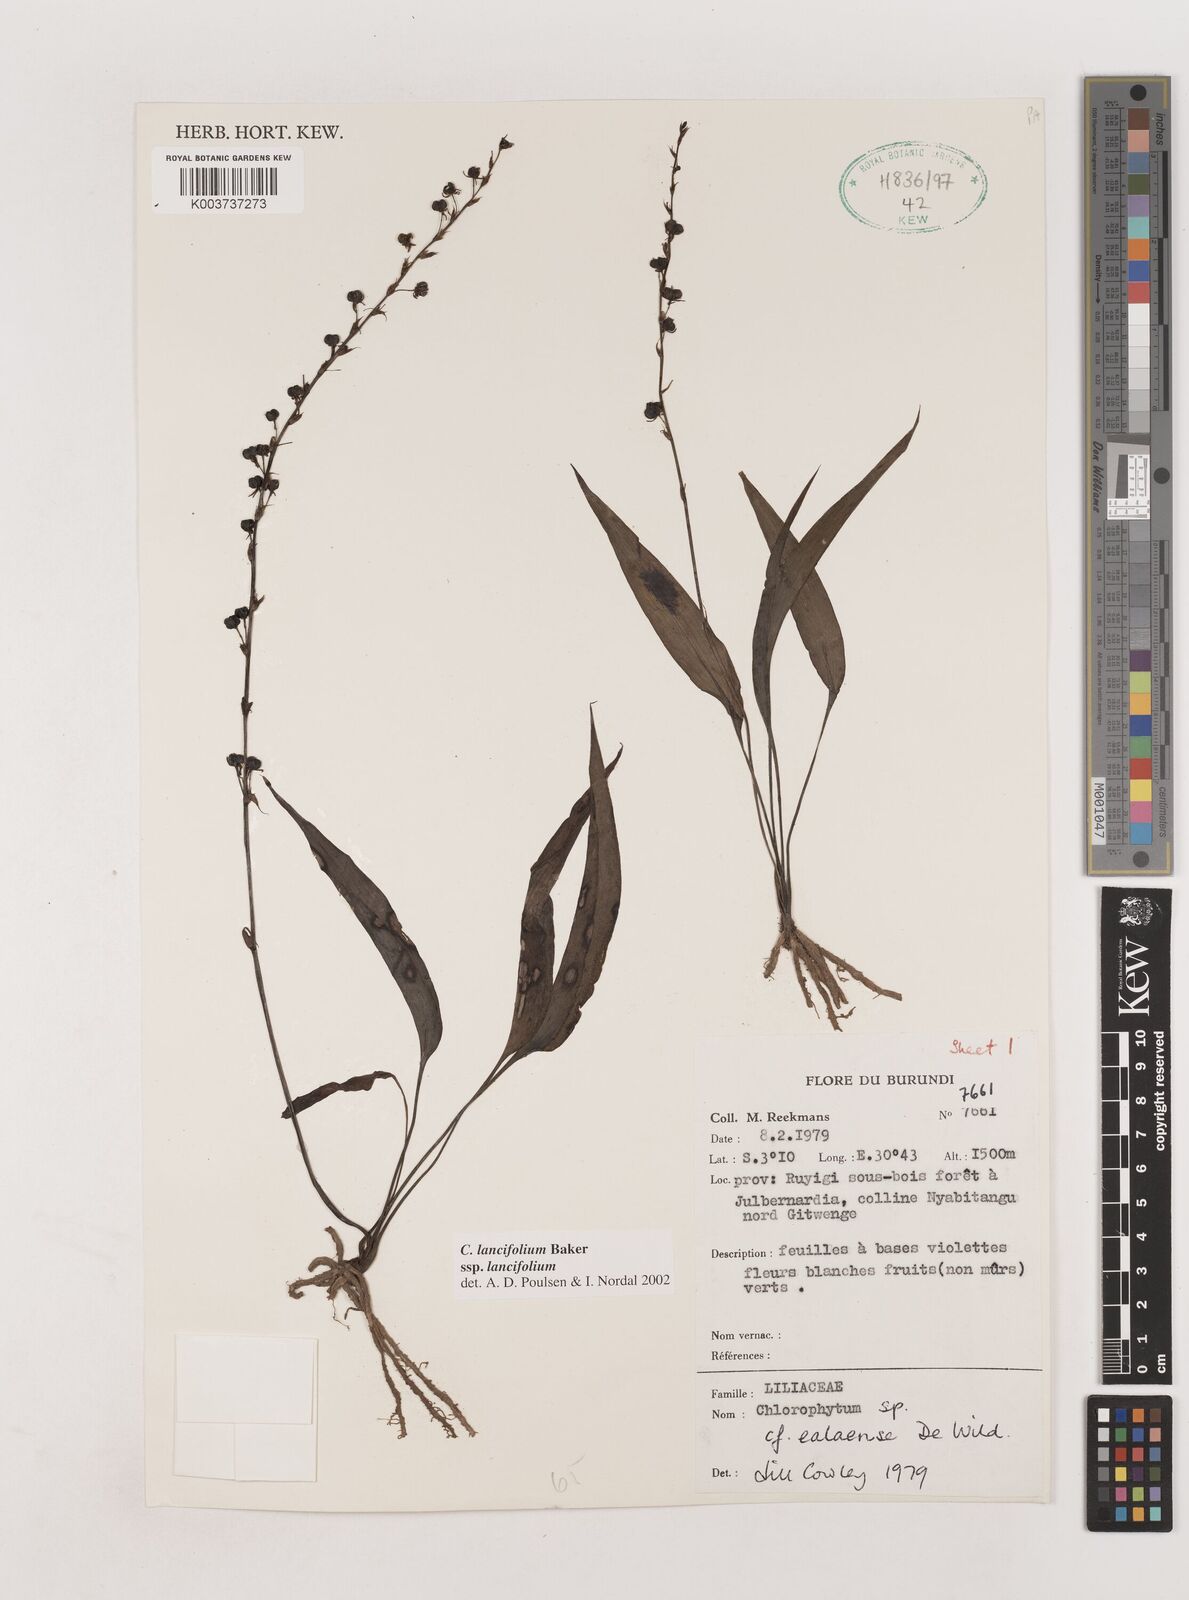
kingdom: Plantae
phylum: Tracheophyta
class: Liliopsida
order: Asparagales
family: Asparagaceae
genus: Chlorophytum
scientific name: Chlorophytum lancifolium
